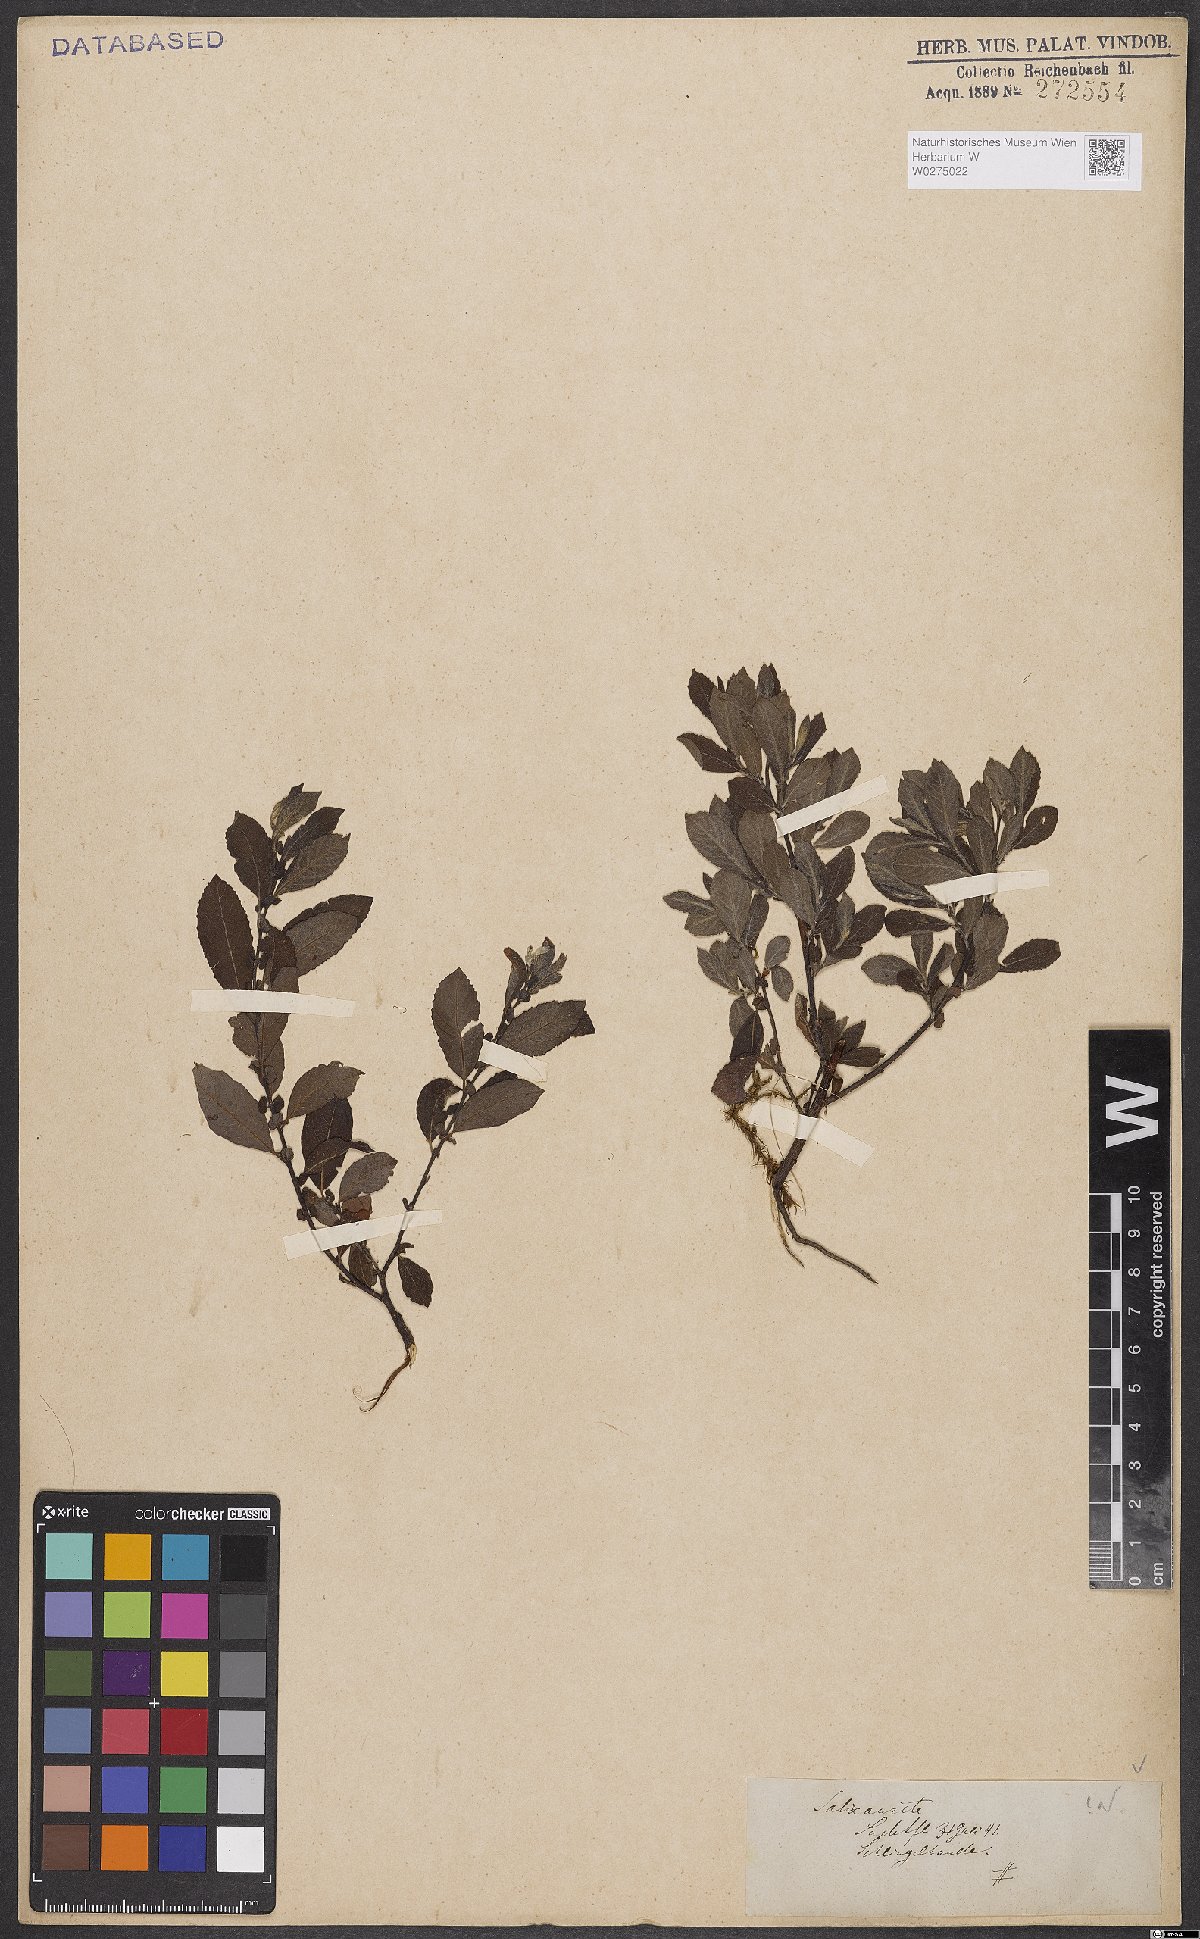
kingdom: Plantae
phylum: Tracheophyta
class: Magnoliopsida
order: Malpighiales
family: Salicaceae
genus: Salix
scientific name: Salix aurita
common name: Eared willow
